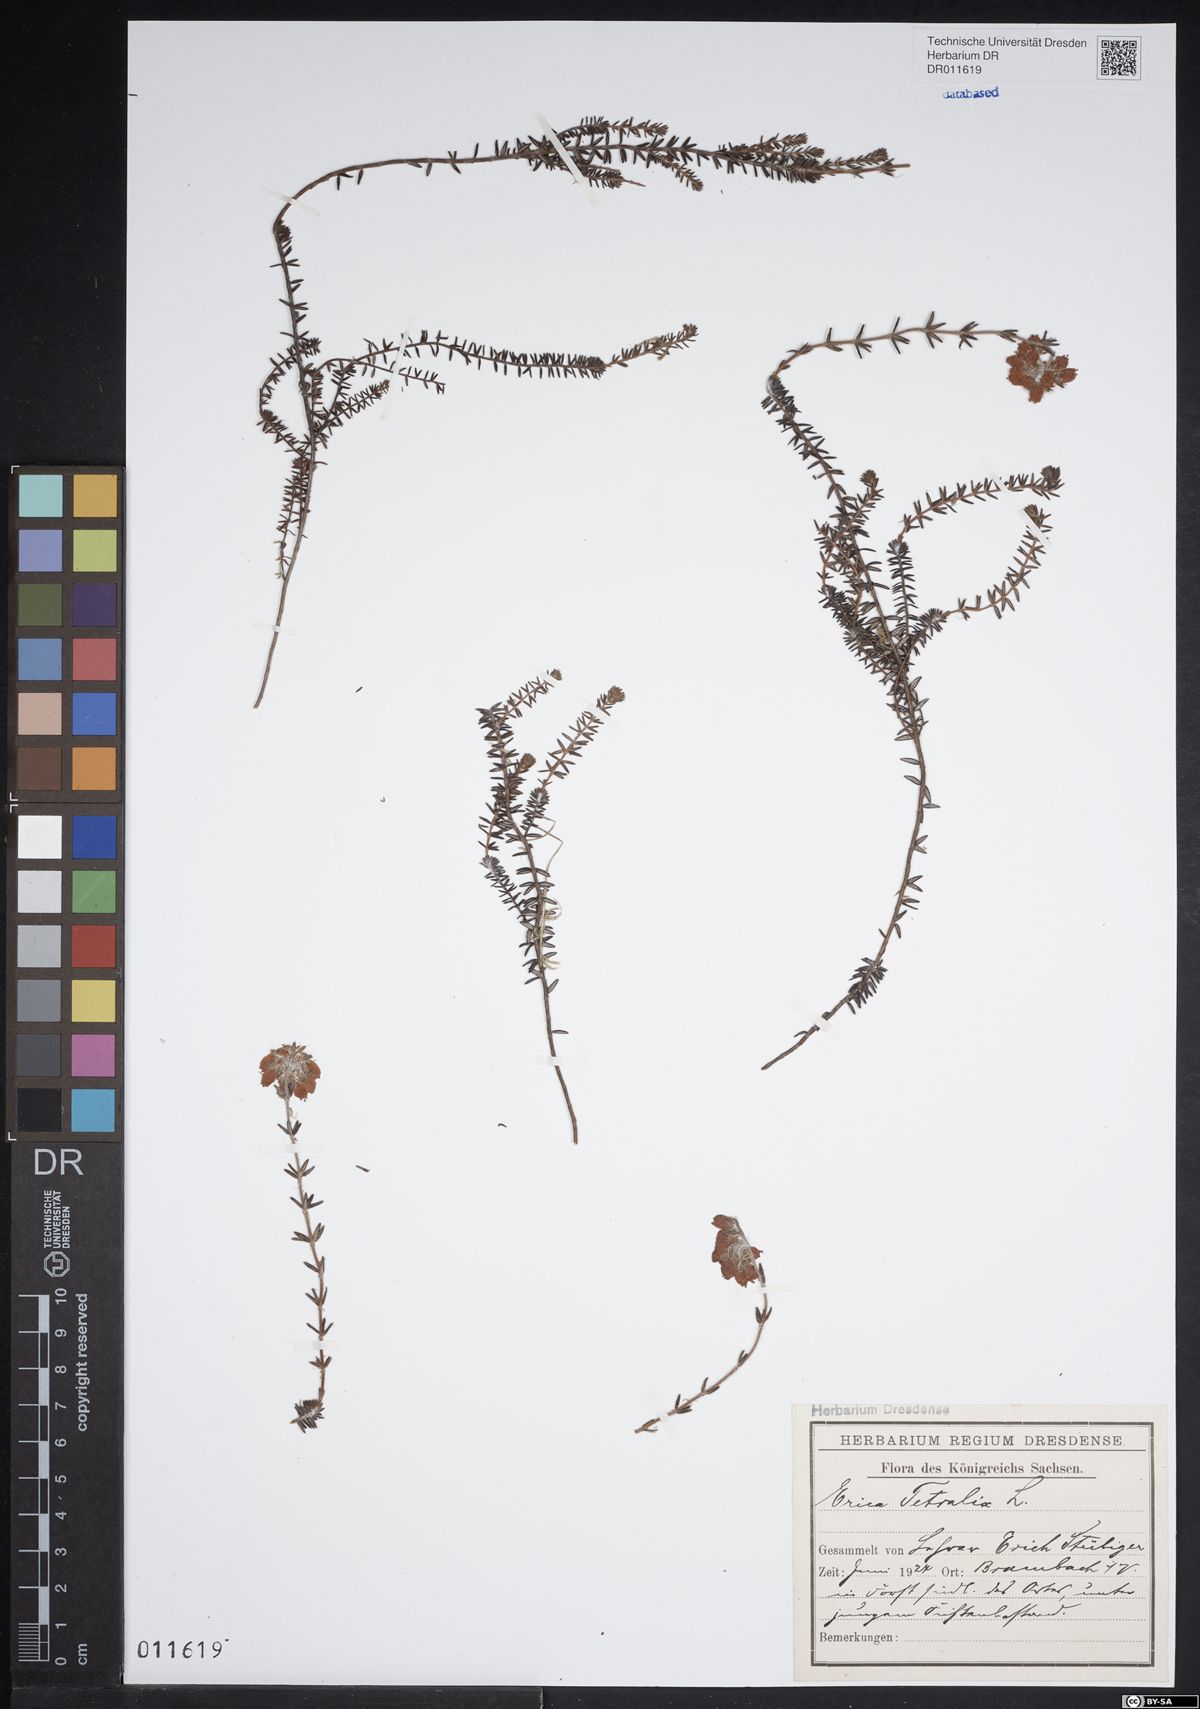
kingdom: Plantae
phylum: Tracheophyta
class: Magnoliopsida
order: Ericales
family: Ericaceae
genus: Erica
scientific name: Erica tetralix
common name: Cross-leaved heath
